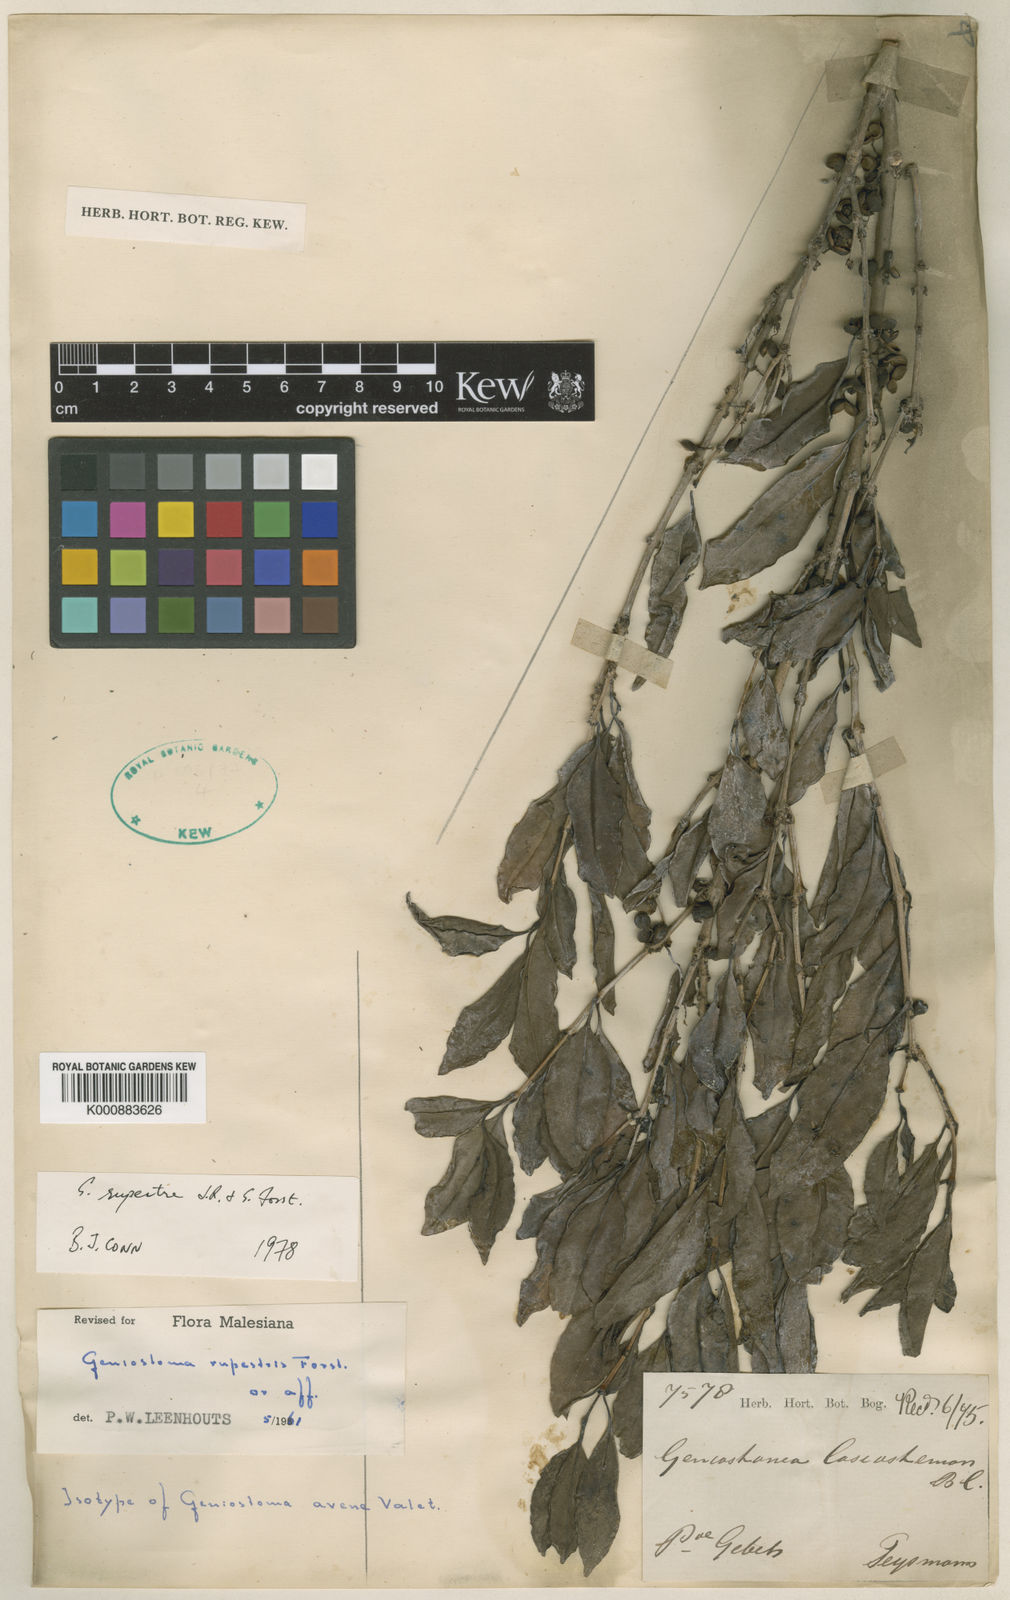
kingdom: Plantae
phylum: Tracheophyta
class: Magnoliopsida
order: Gentianales
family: Loganiaceae
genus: Geniostoma
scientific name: Geniostoma rupestre
